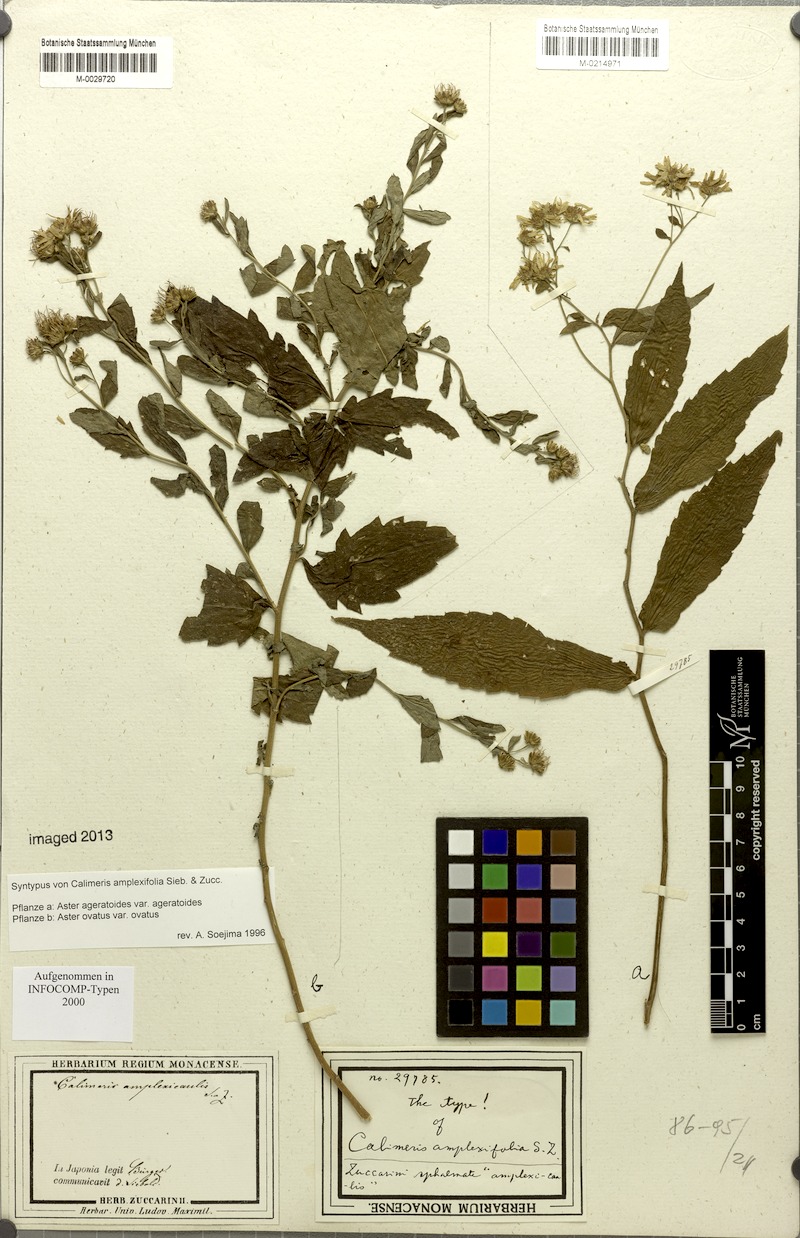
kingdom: Plantae
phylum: Tracheophyta
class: Magnoliopsida
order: Asterales
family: Asteraceae
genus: Aster
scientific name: Aster ageratoides
